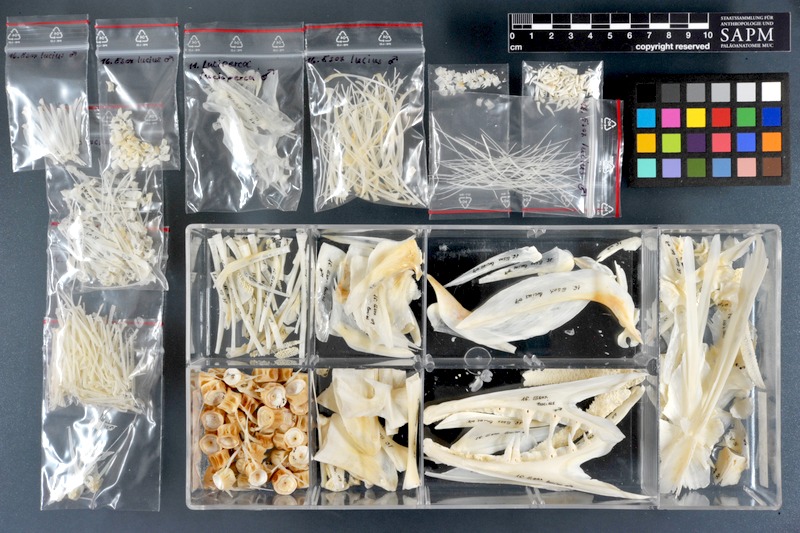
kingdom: Animalia
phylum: Chordata
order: Esociformes
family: Esocidae
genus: Esox
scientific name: Esox lucius
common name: Northern pike
